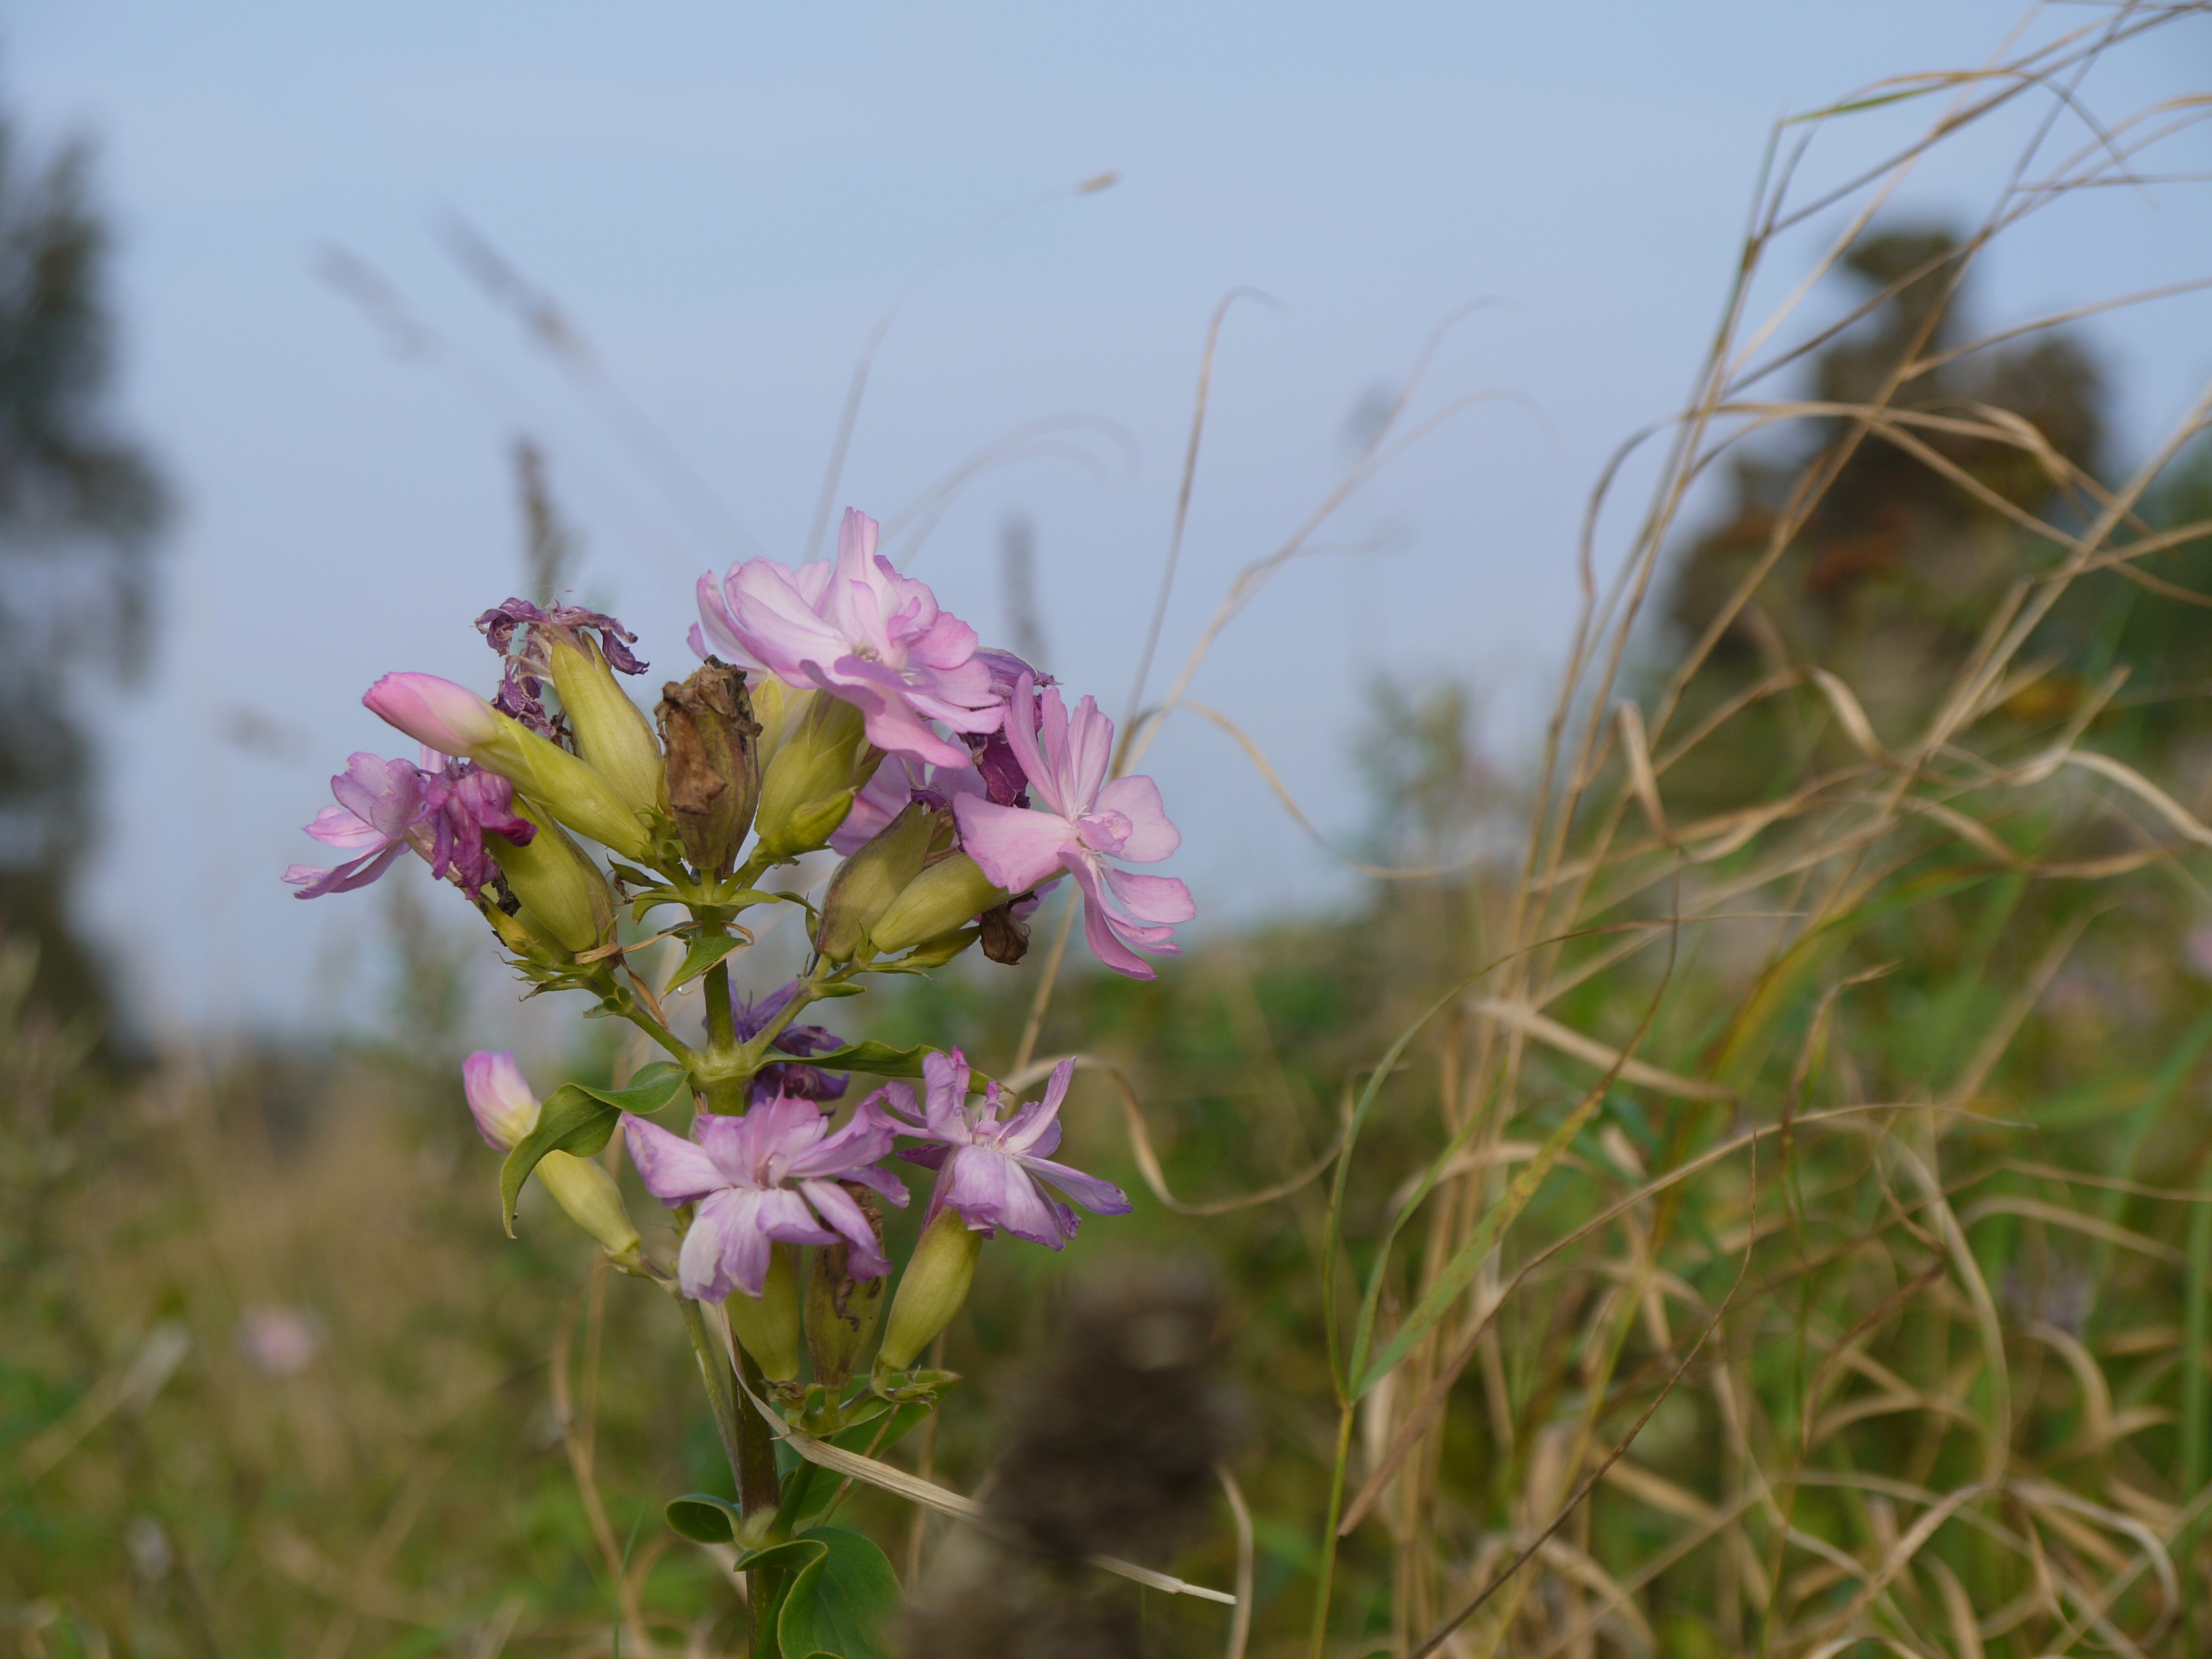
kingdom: Plantae
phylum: Tracheophyta
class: Magnoliopsida
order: Caryophyllales
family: Caryophyllaceae
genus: Saponaria
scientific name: Saponaria officinalis
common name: Soapwort
